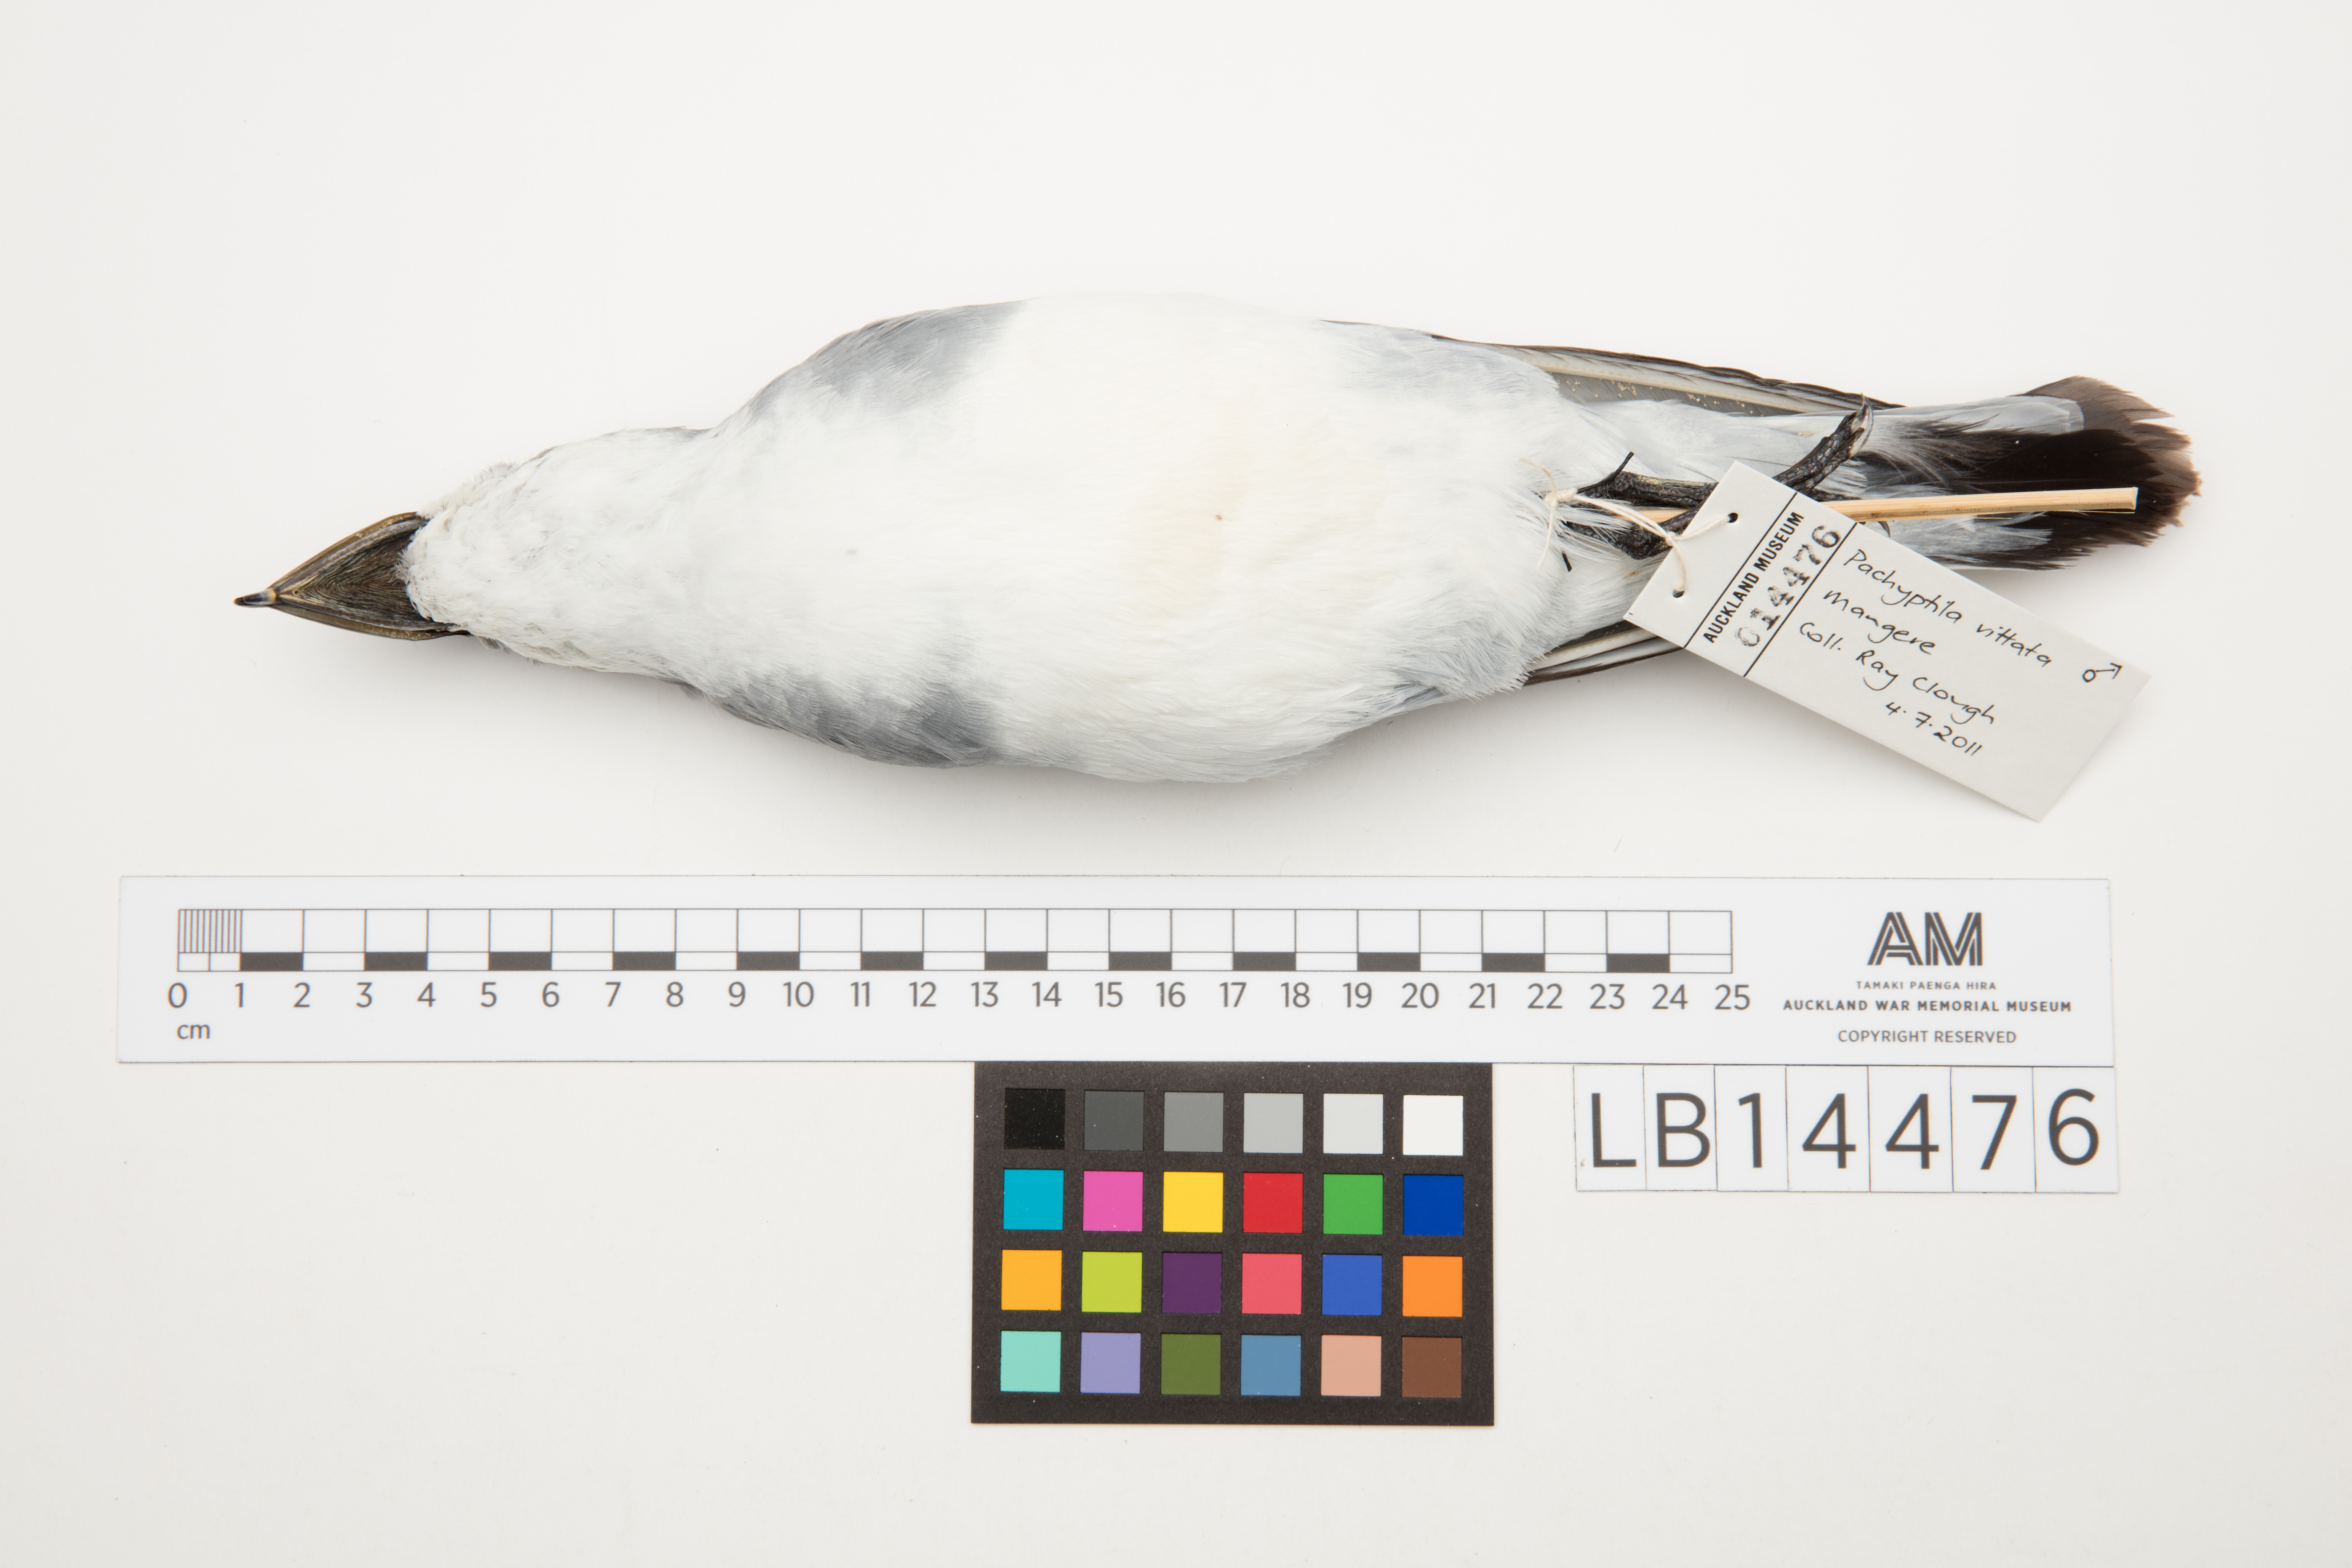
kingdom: Animalia
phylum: Chordata
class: Aves
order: Procellariiformes
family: Procellariidae
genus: Pachyptila
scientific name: Pachyptila vittata
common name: Broad-billed prion
